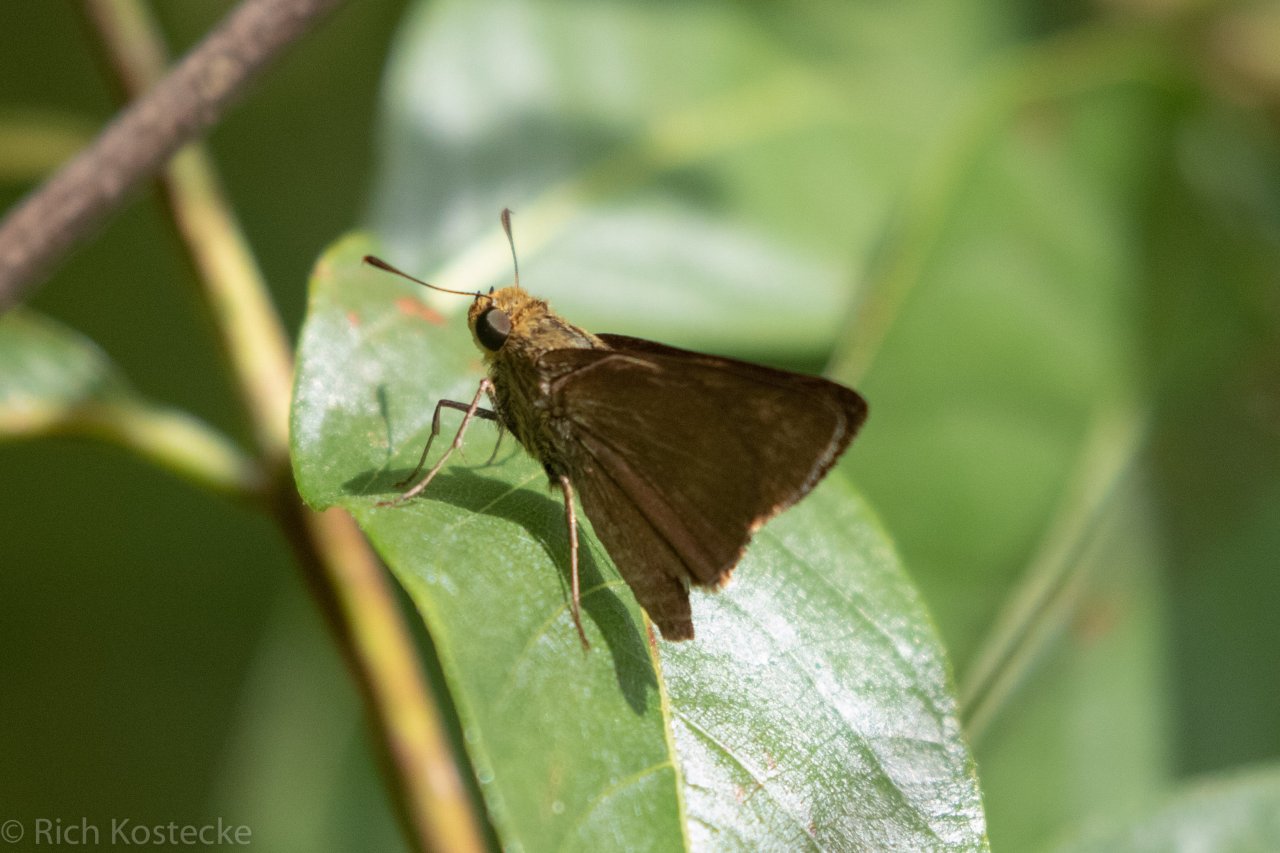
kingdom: Animalia
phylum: Arthropoda
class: Insecta
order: Lepidoptera
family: Hesperiidae
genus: Euphyes
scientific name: Euphyes vestris
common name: Dun Skipper
